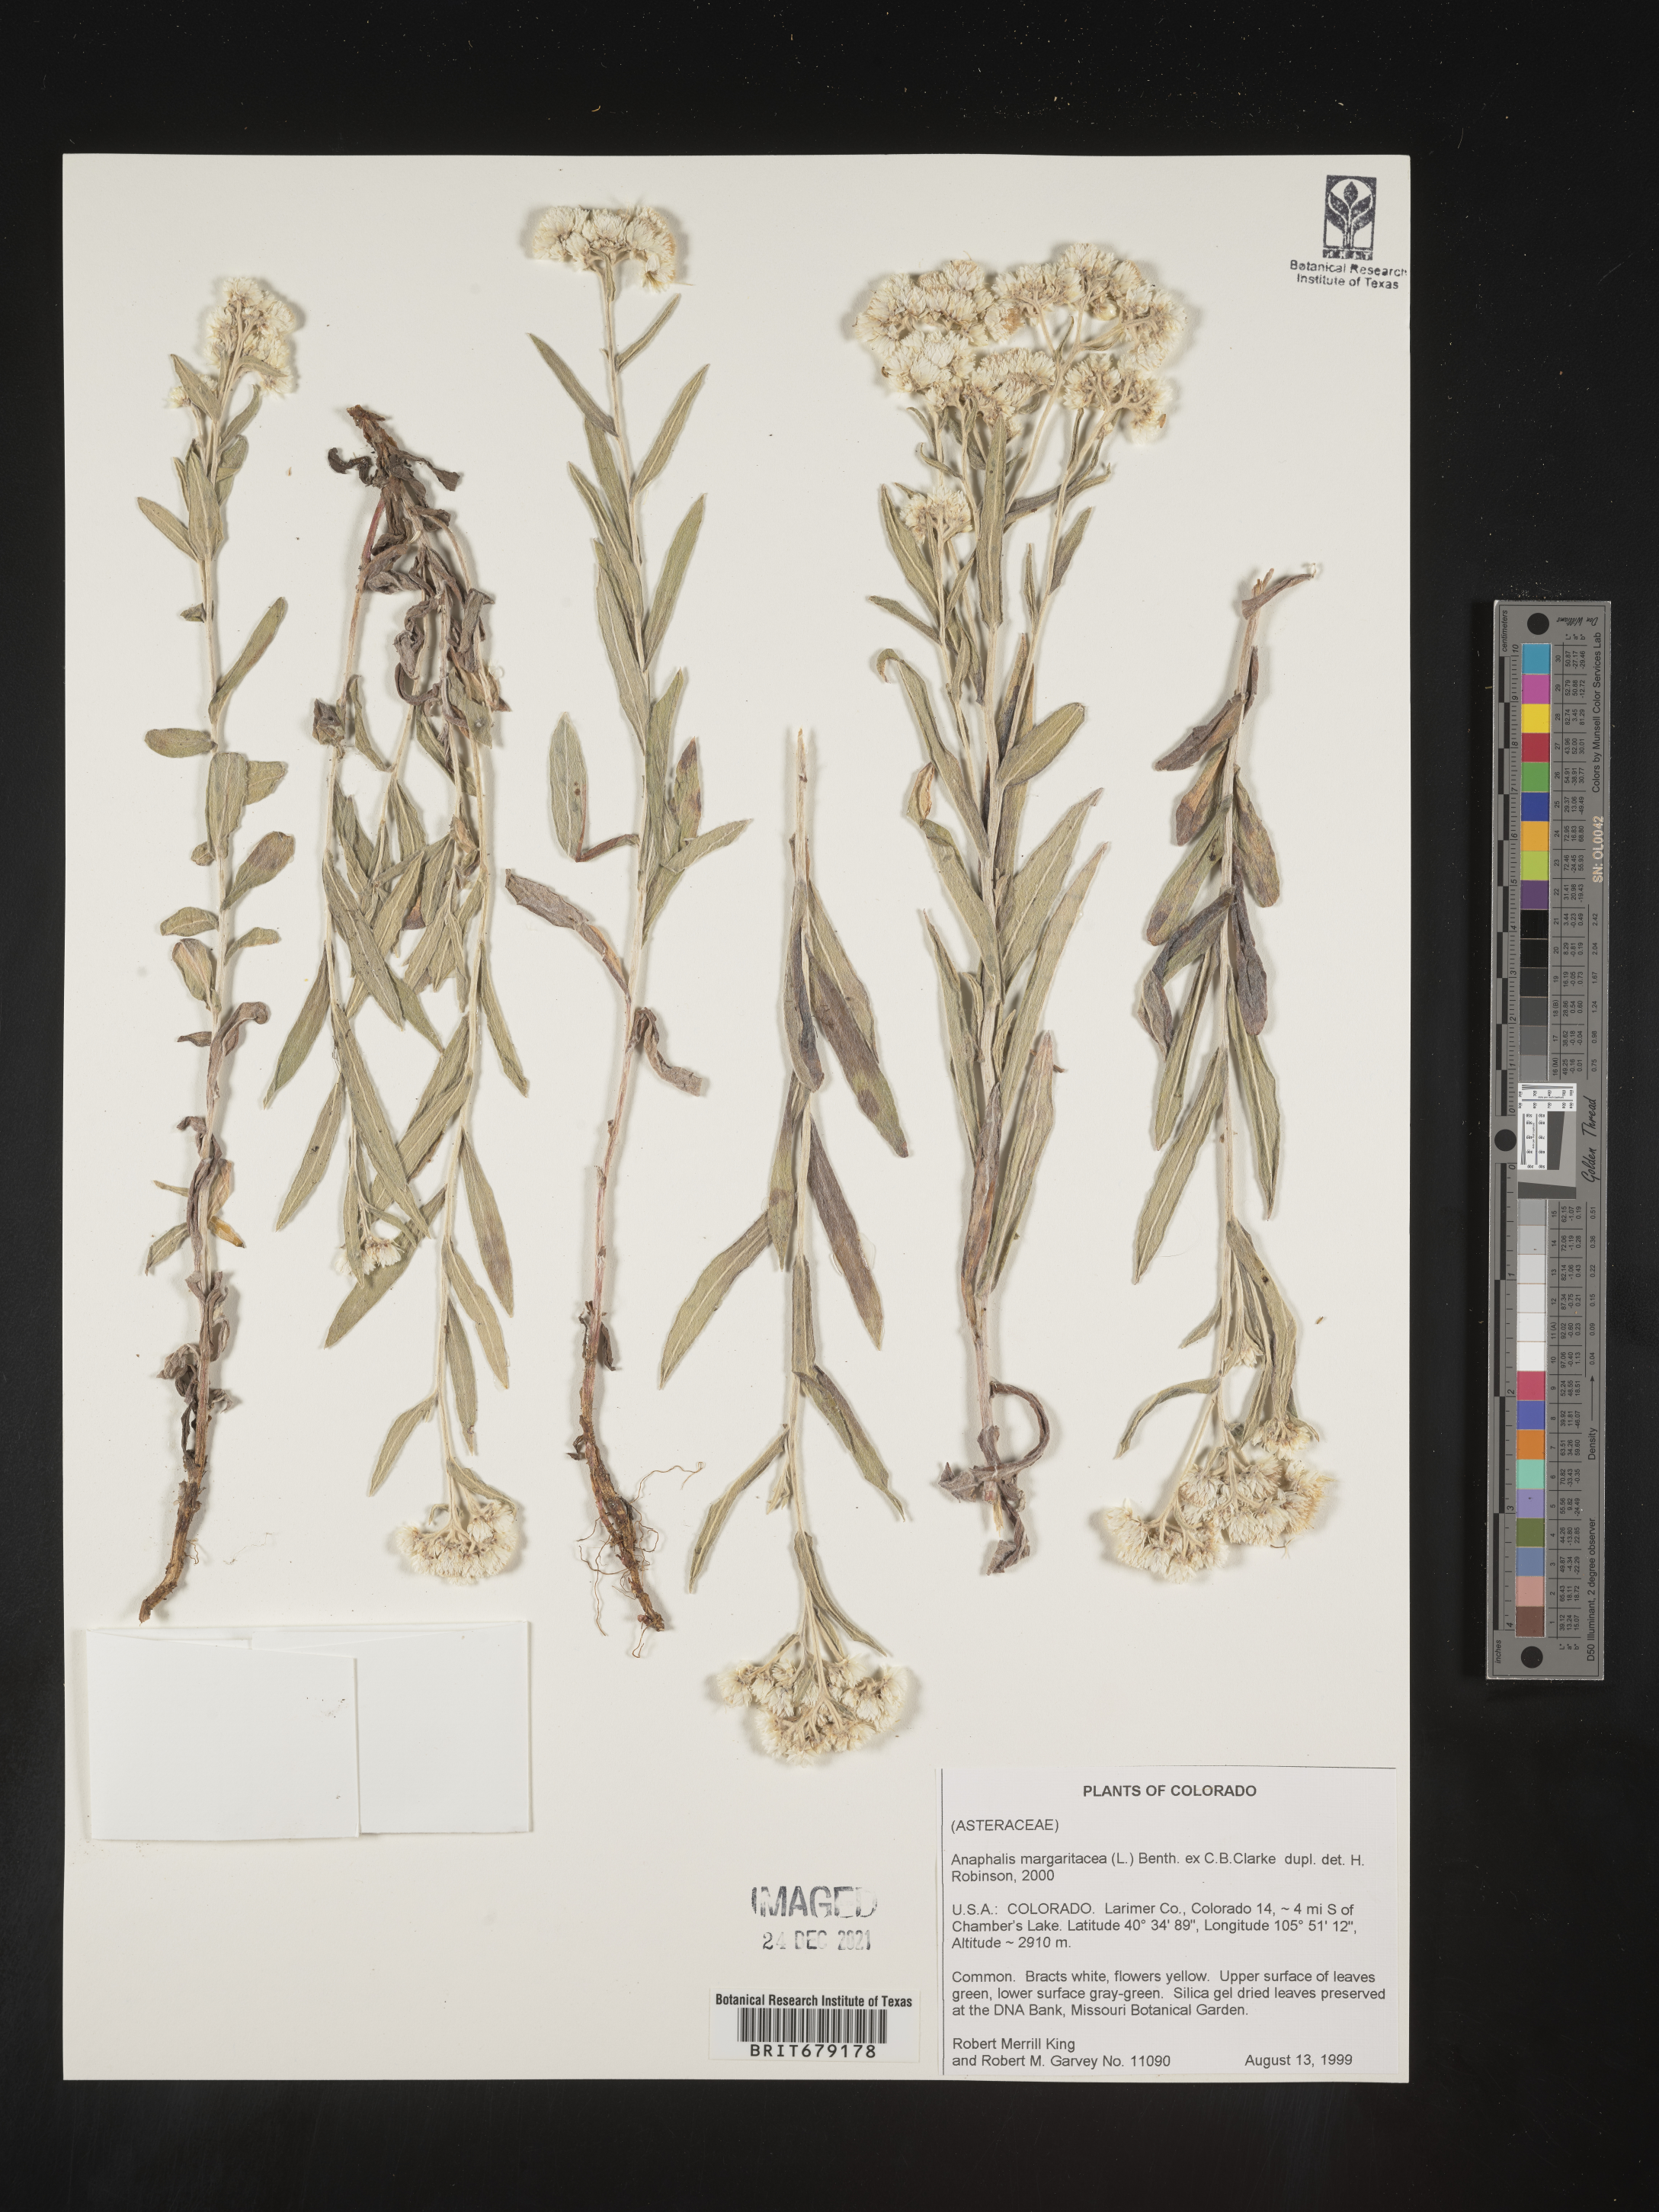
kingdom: Plantae
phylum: Tracheophyta
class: Magnoliopsida
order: Asterales
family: Asteraceae
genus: Anaphalis
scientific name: Anaphalis margaritacea
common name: Pearly everlasting
